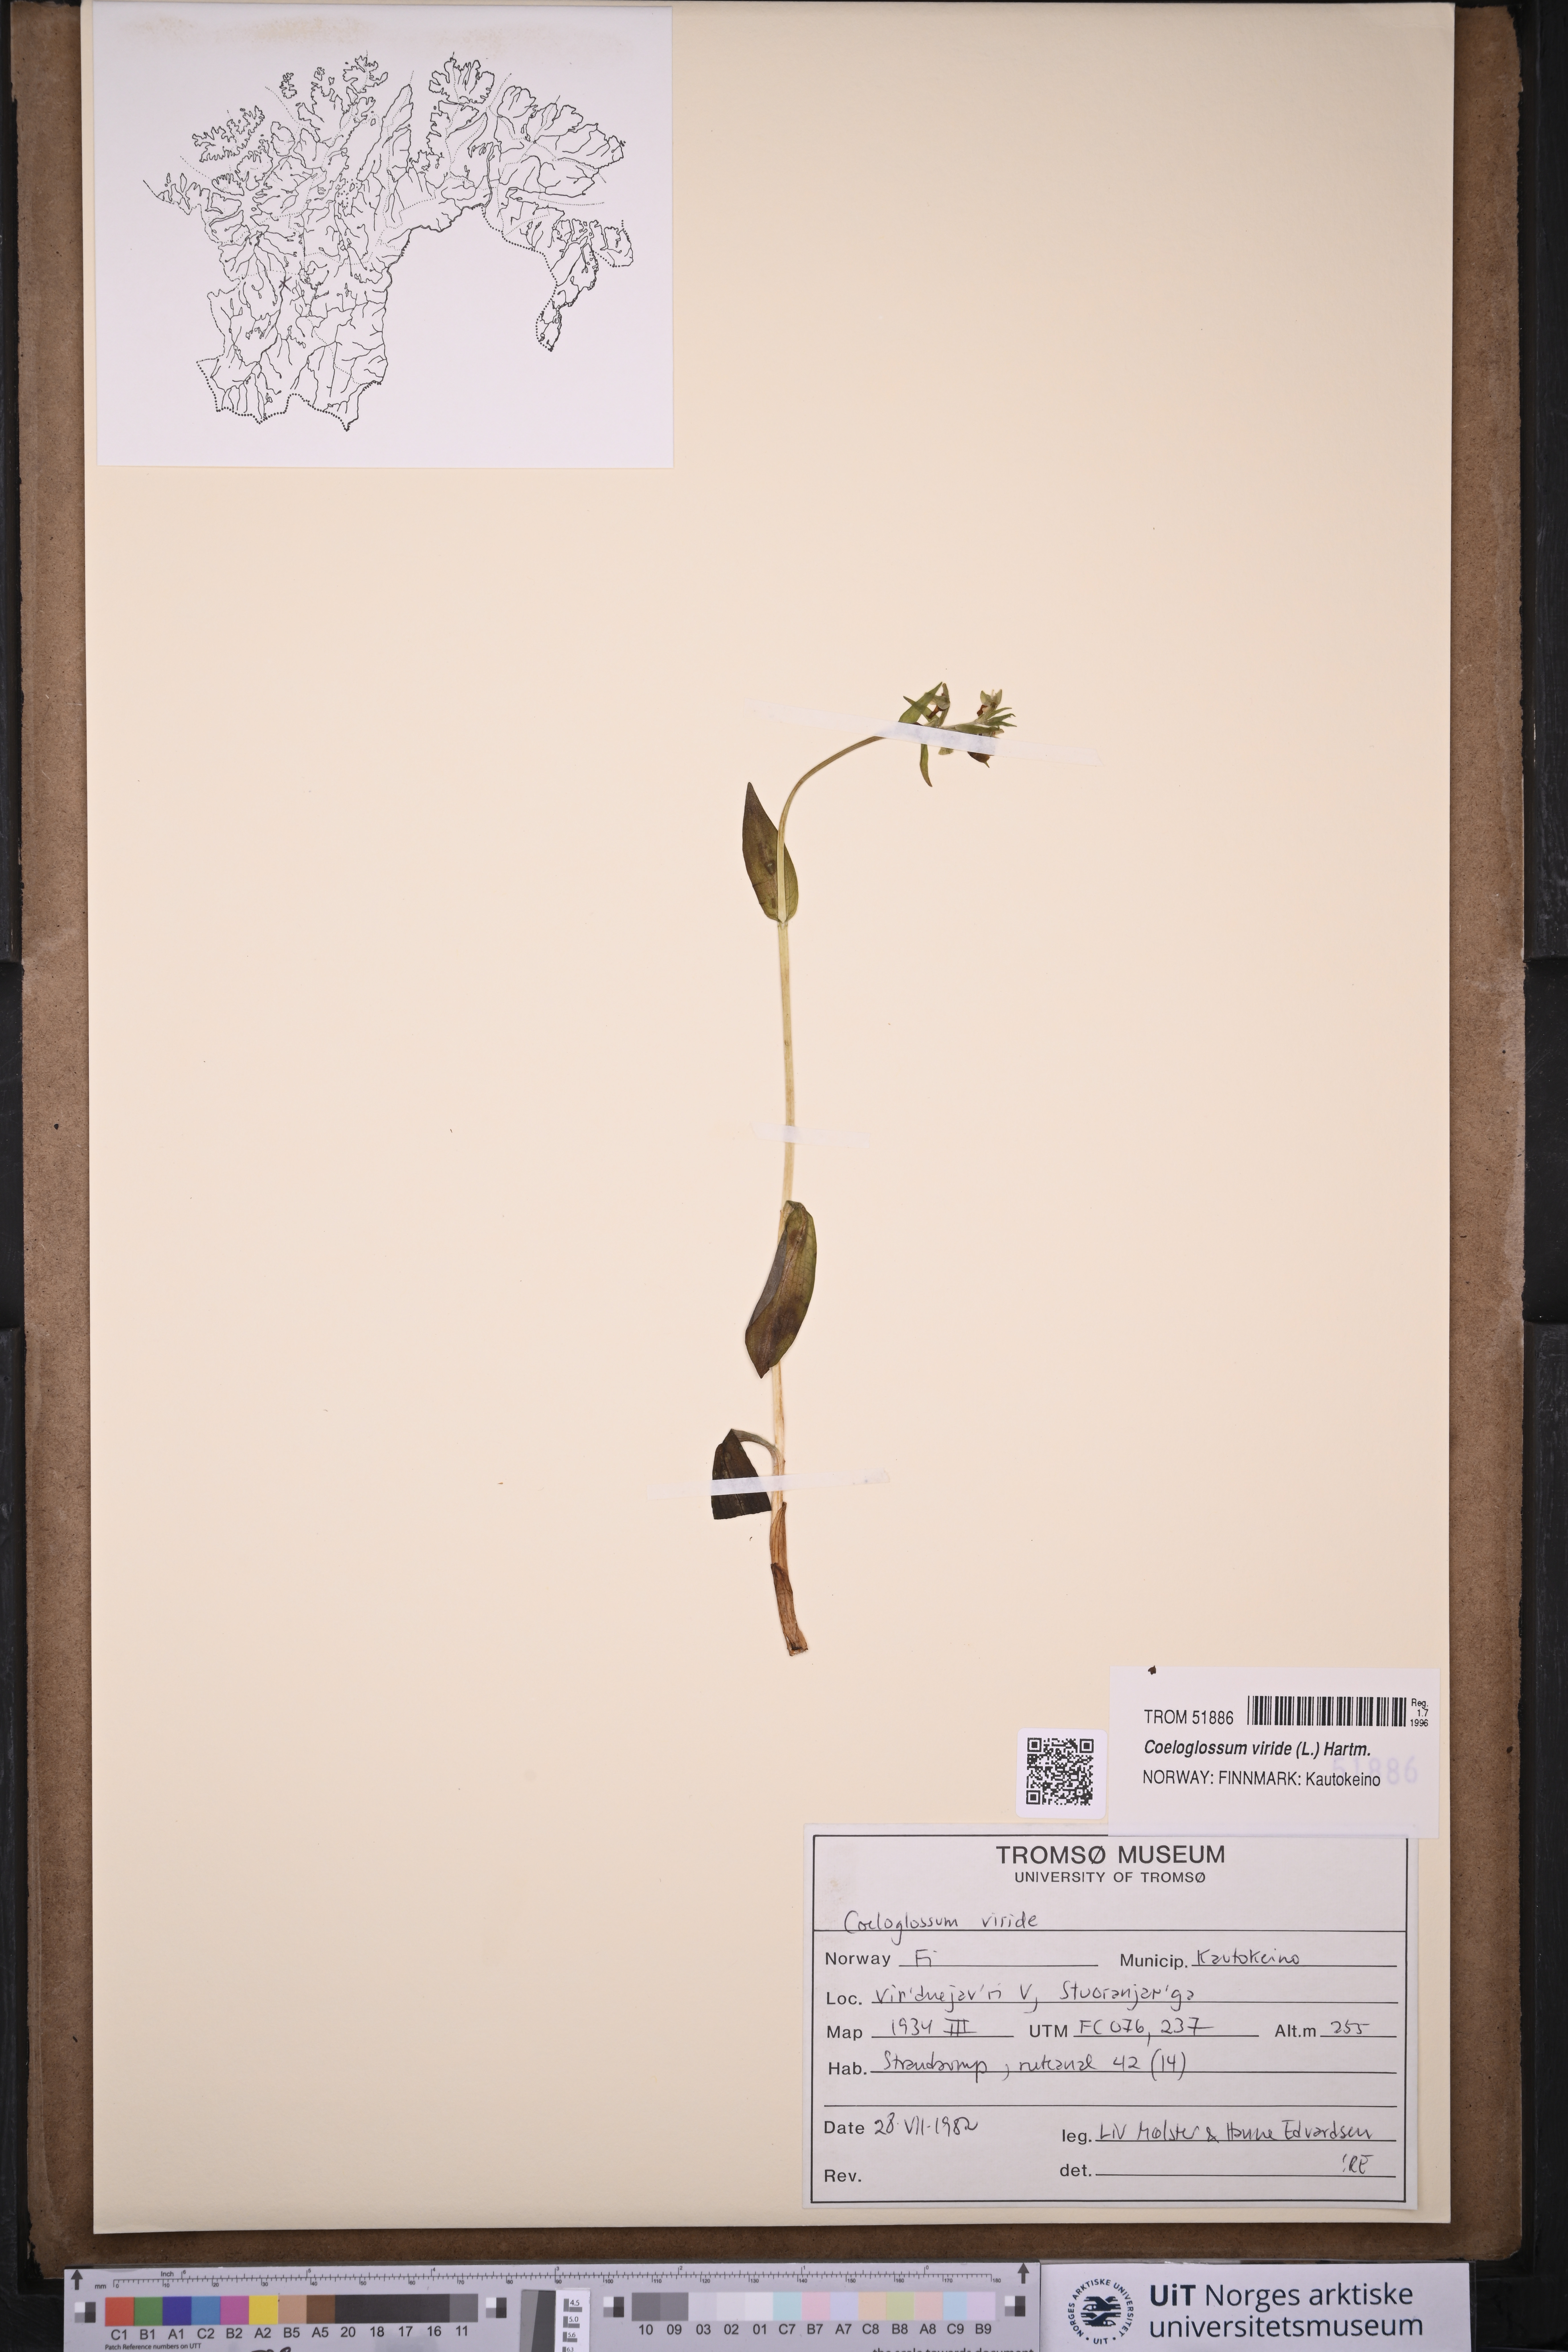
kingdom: Plantae
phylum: Tracheophyta
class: Liliopsida
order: Asparagales
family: Orchidaceae
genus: Dactylorhiza
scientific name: Dactylorhiza viridis
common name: Longbract frog orchid
